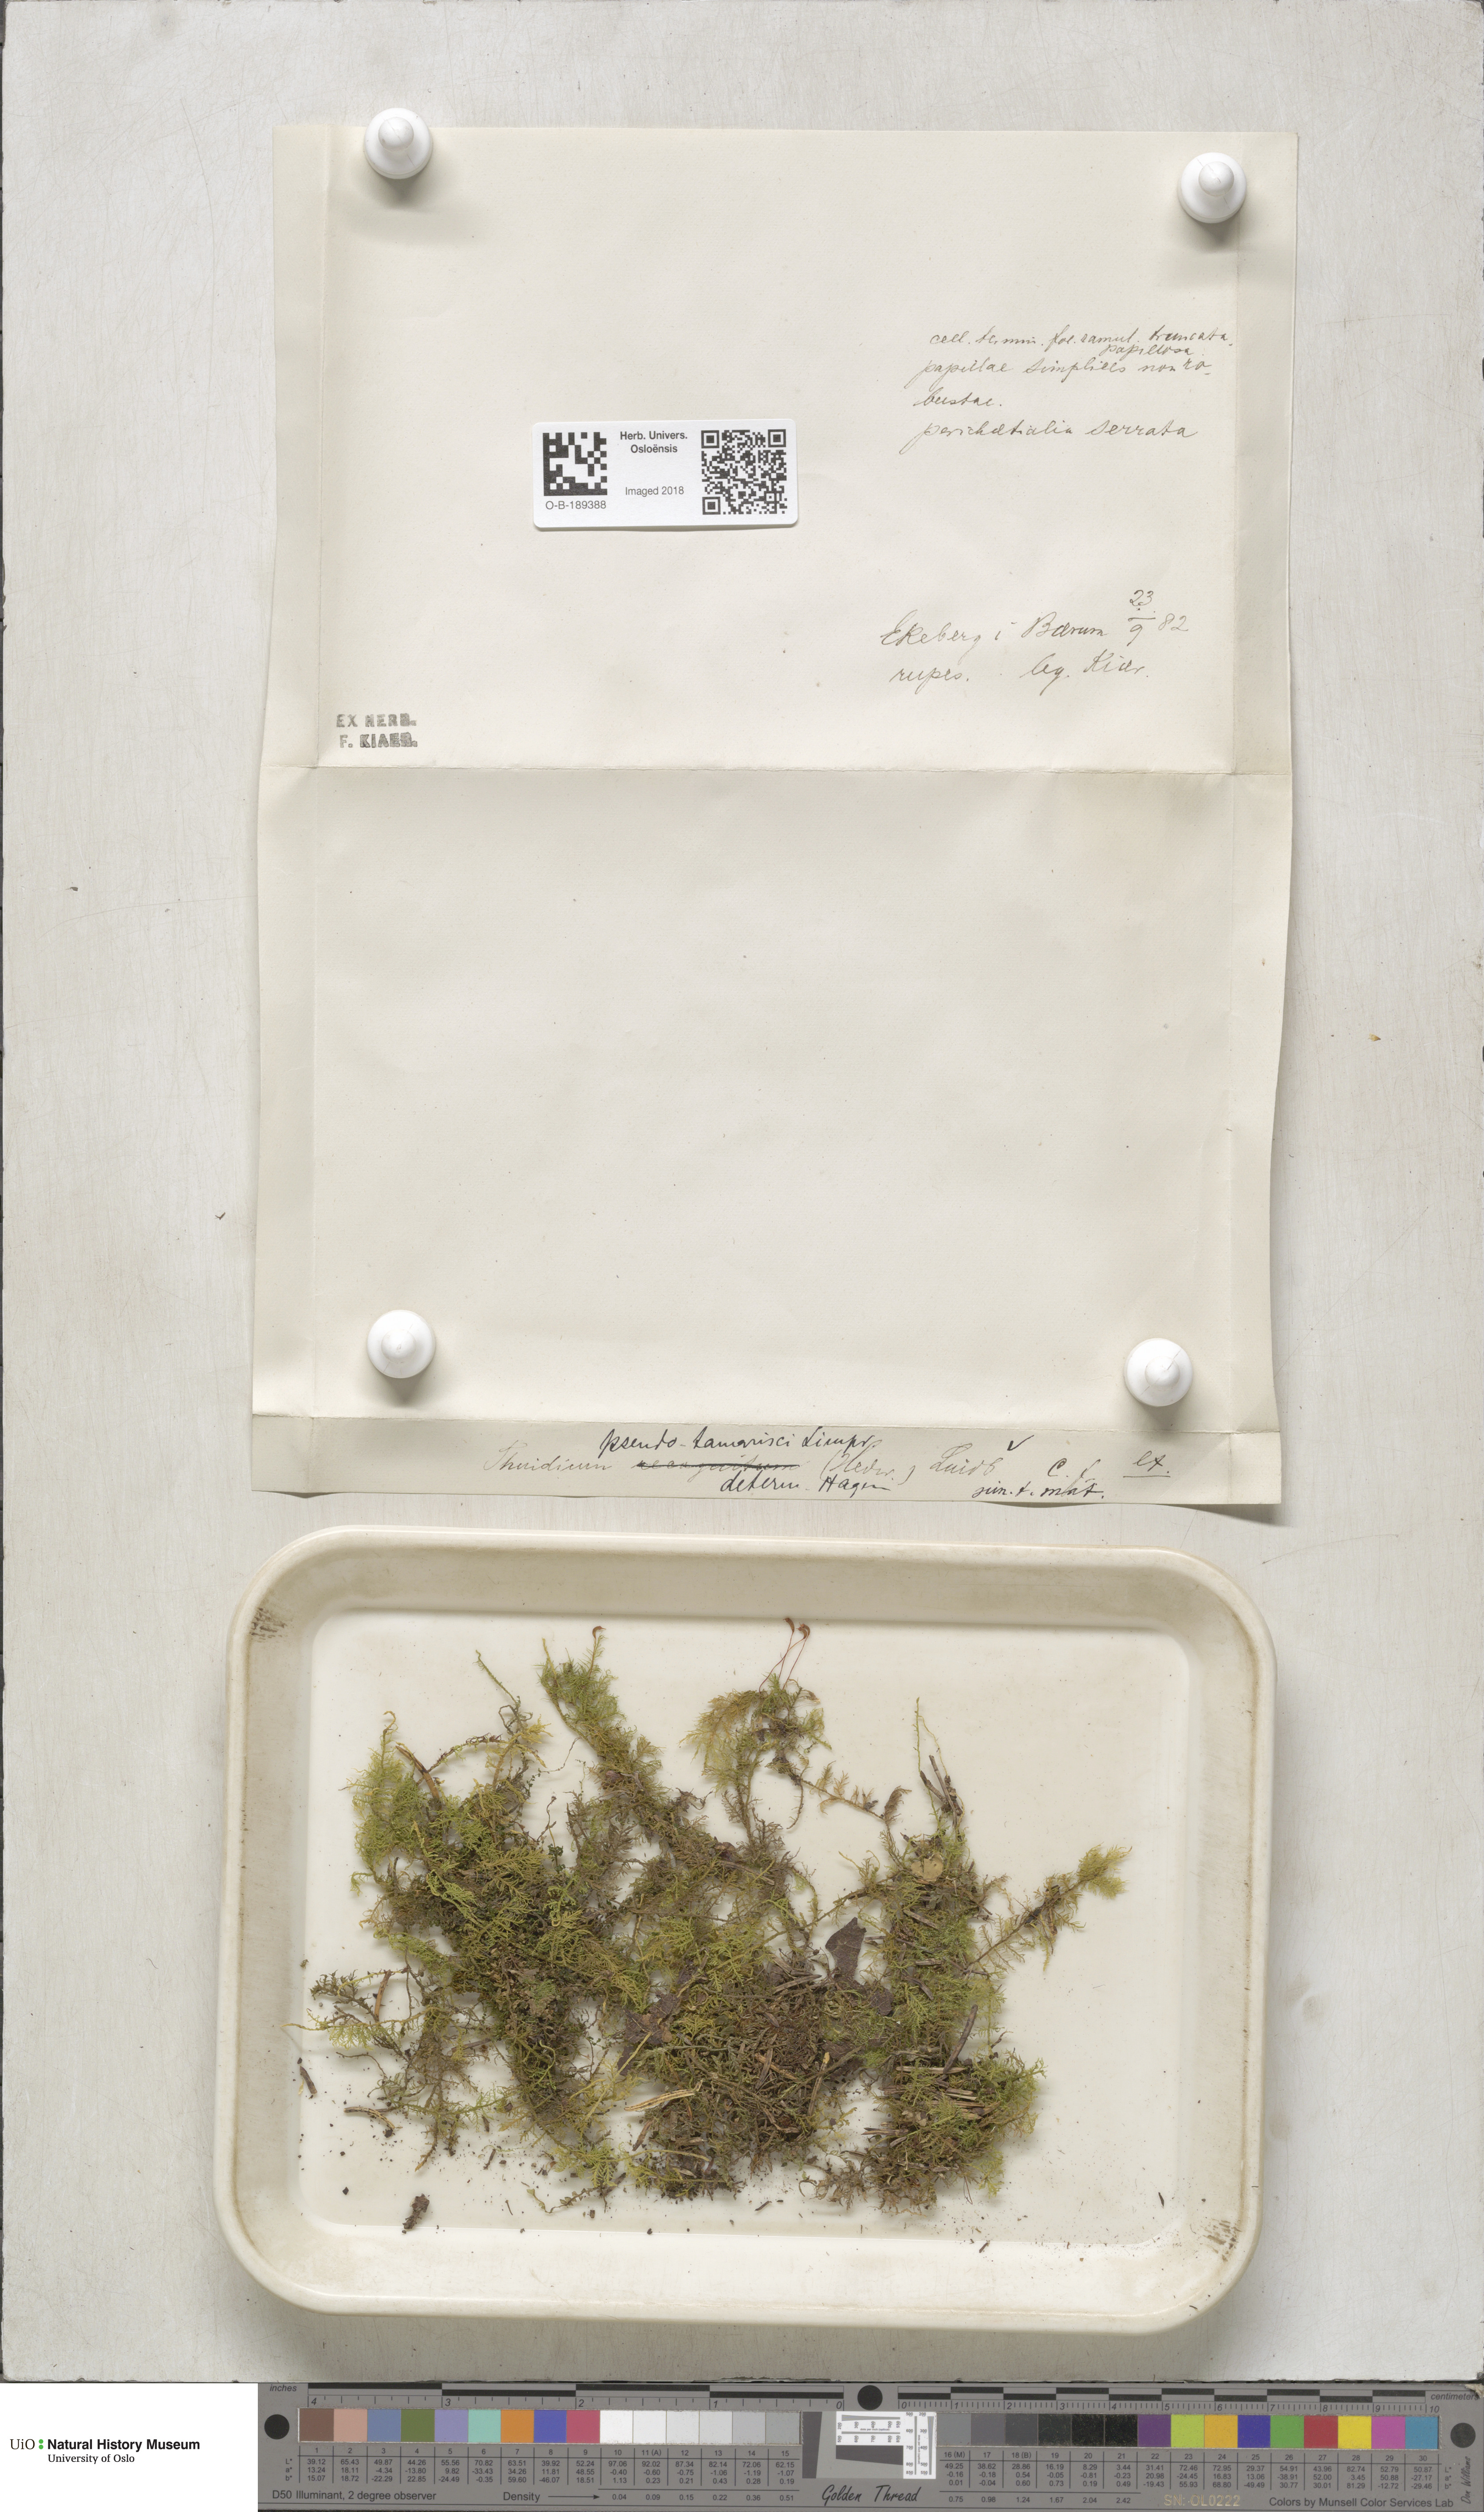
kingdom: Plantae
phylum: Bryophyta
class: Bryopsida
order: Hypnales
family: Thuidiaceae
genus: Thuidium
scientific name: Thuidium assimile
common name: Philibert's fern moss
